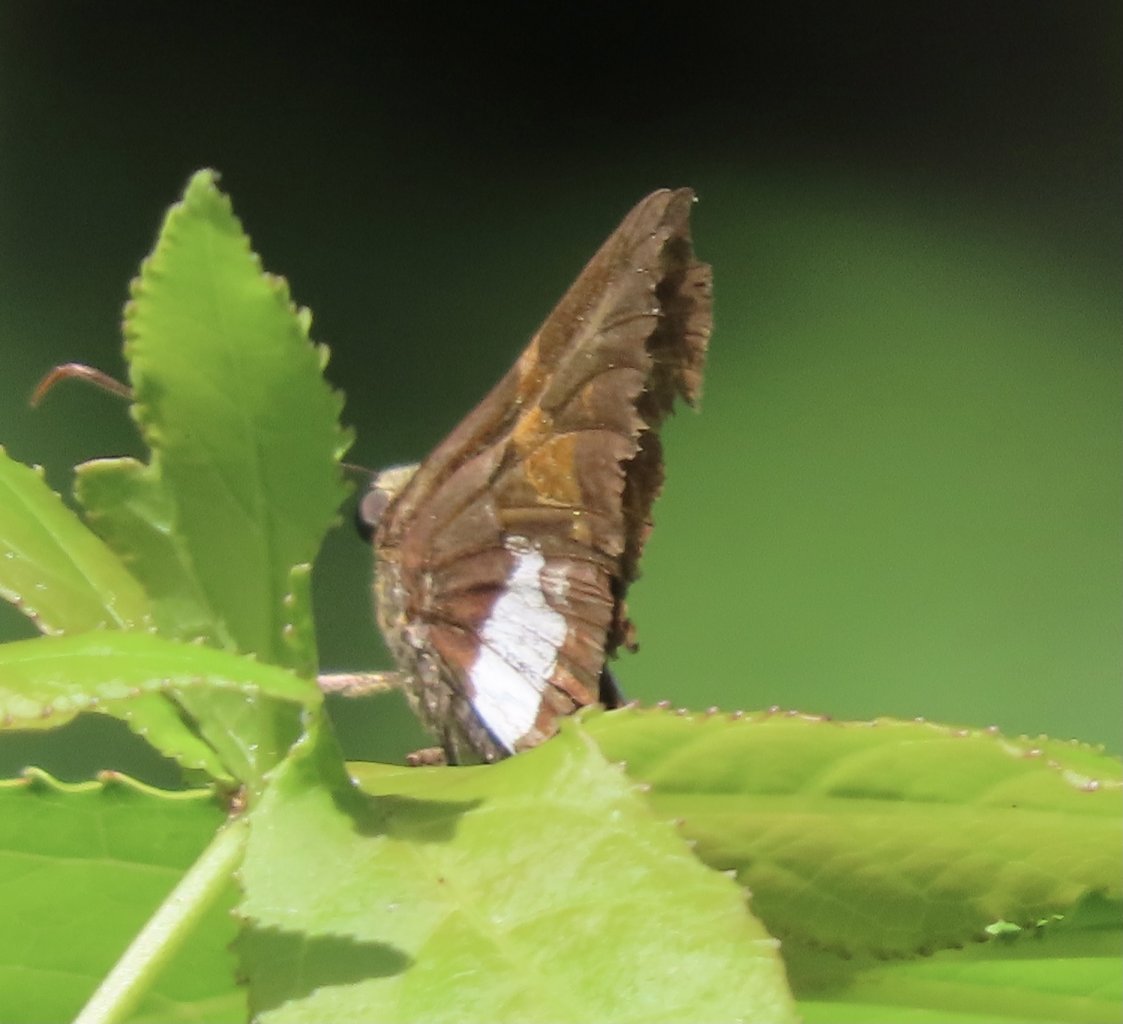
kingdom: Animalia
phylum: Arthropoda
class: Insecta
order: Lepidoptera
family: Hesperiidae
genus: Epargyreus
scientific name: Epargyreus clarus
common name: Silver-spotted Skipper
